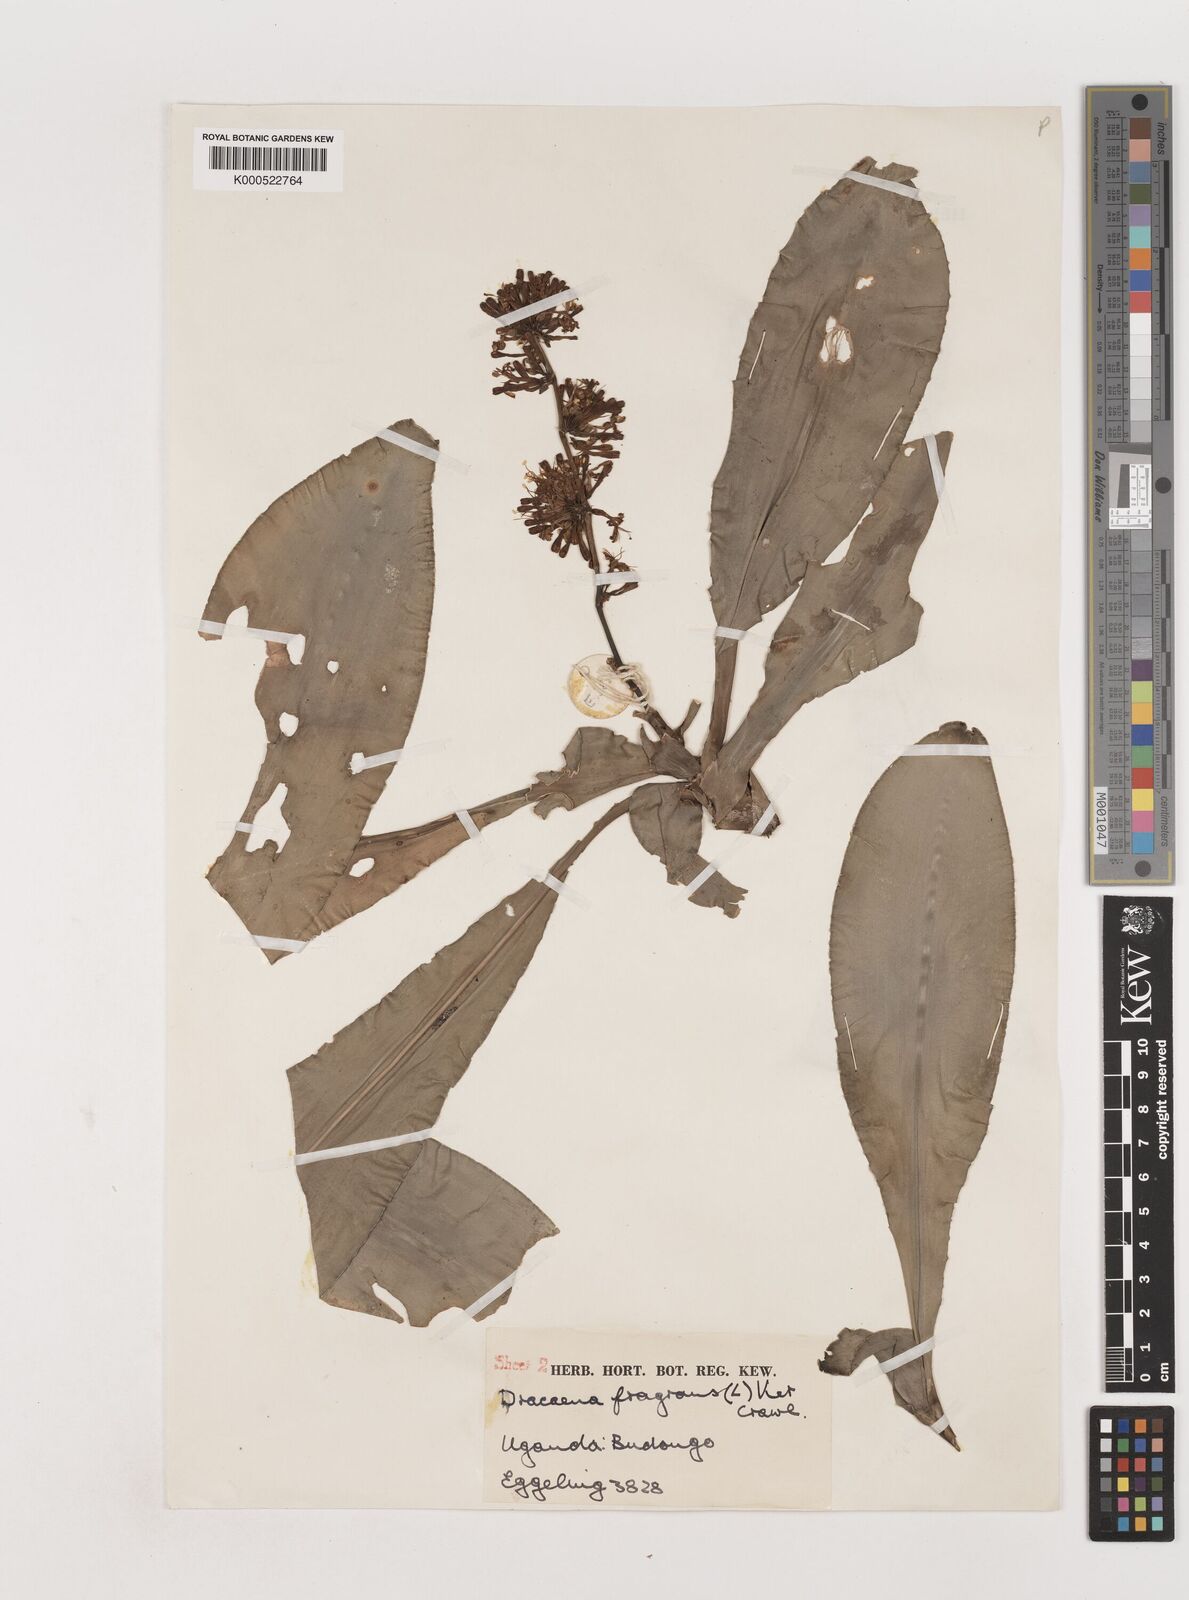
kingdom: Plantae
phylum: Tracheophyta
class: Liliopsida
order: Asparagales
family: Asparagaceae
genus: Dracaena
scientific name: Dracaena fragrans
